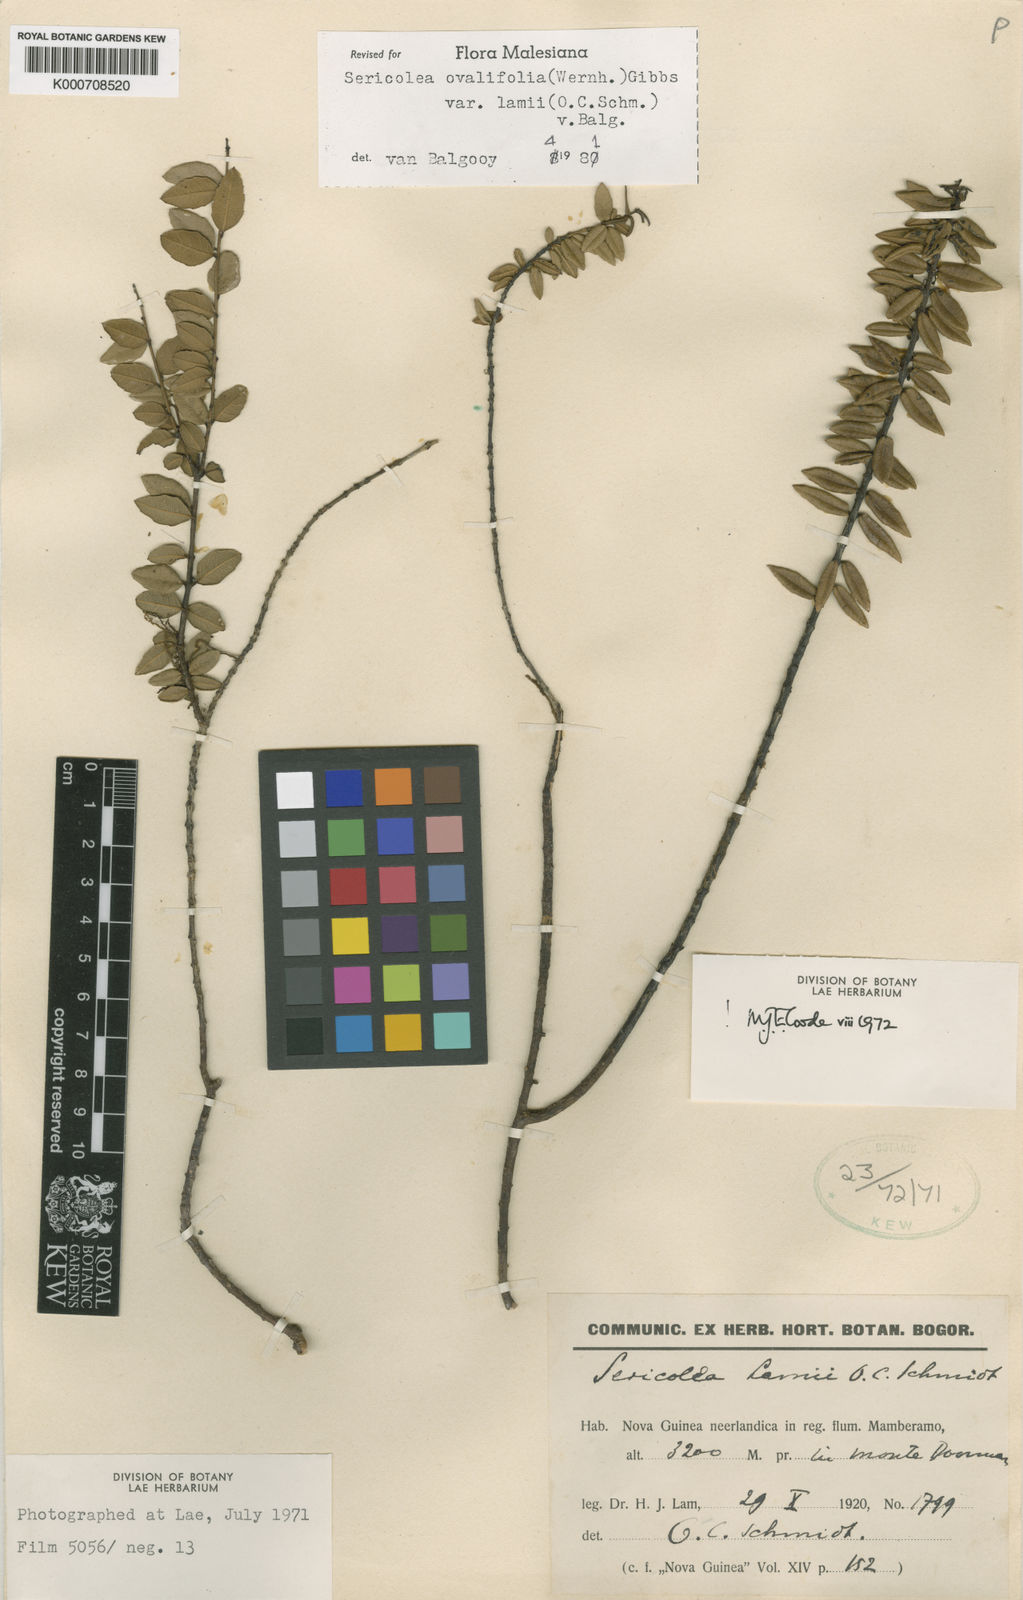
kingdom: Plantae
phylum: Tracheophyta
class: Magnoliopsida
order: Oxalidales
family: Elaeocarpaceae
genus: Sericolea
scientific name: Sericolea ovalifolia
